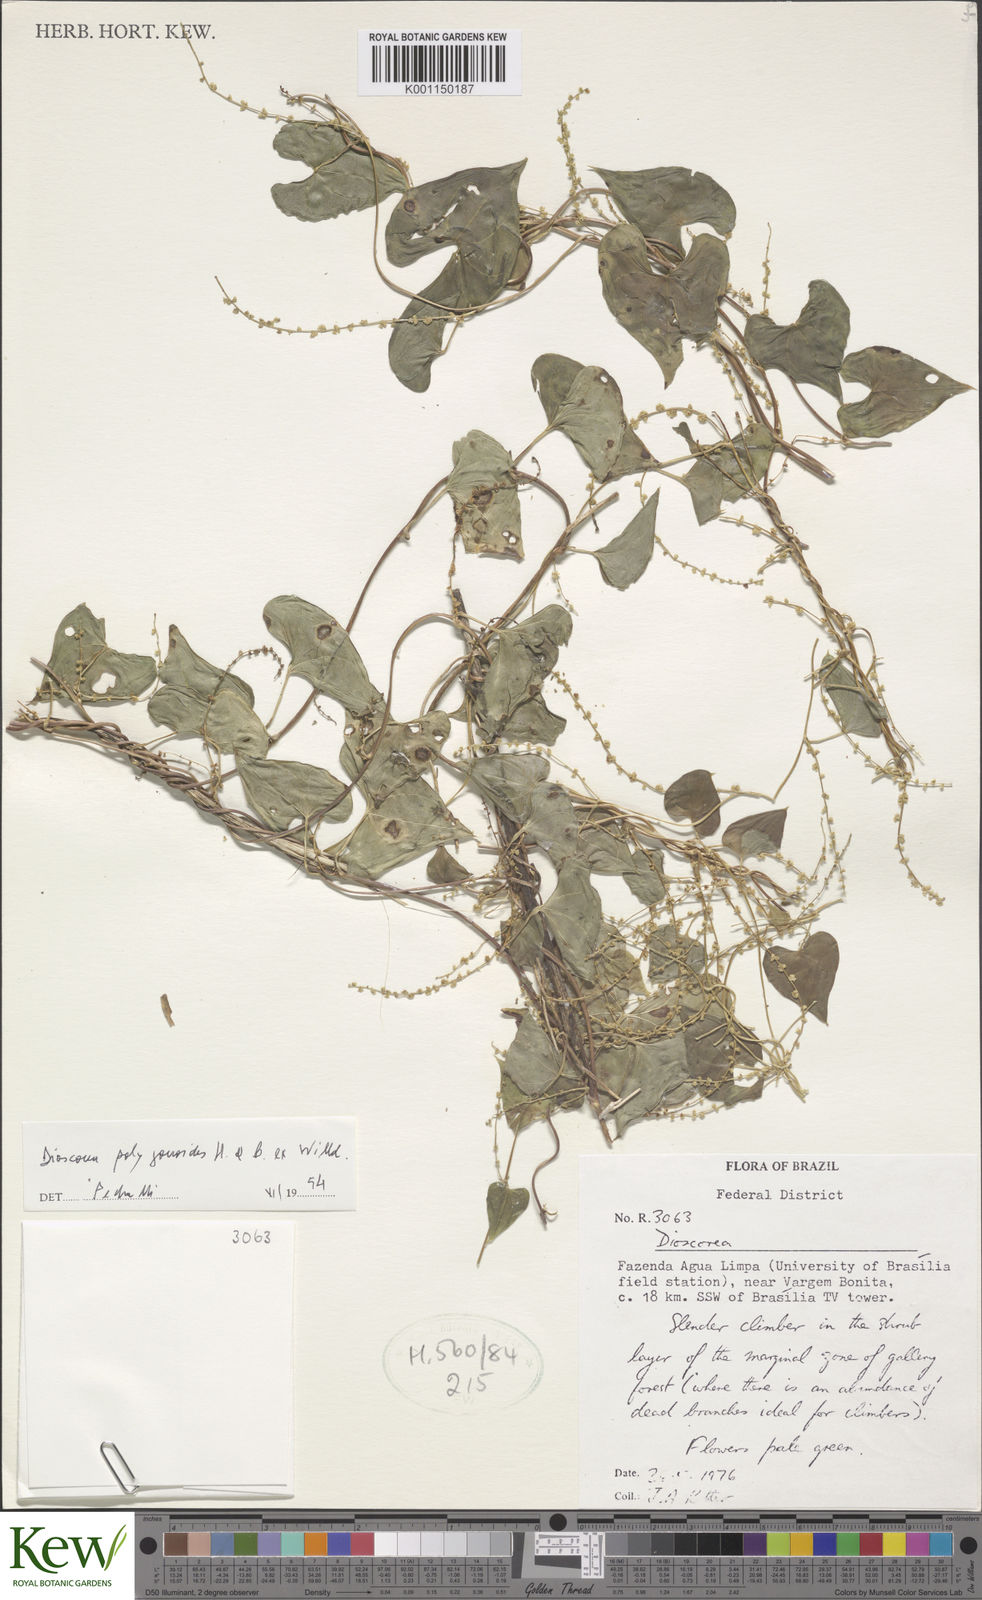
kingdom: Plantae
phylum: Tracheophyta
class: Liliopsida
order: Dioscoreales
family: Dioscoreaceae
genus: Dioscorea
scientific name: Dioscorea
